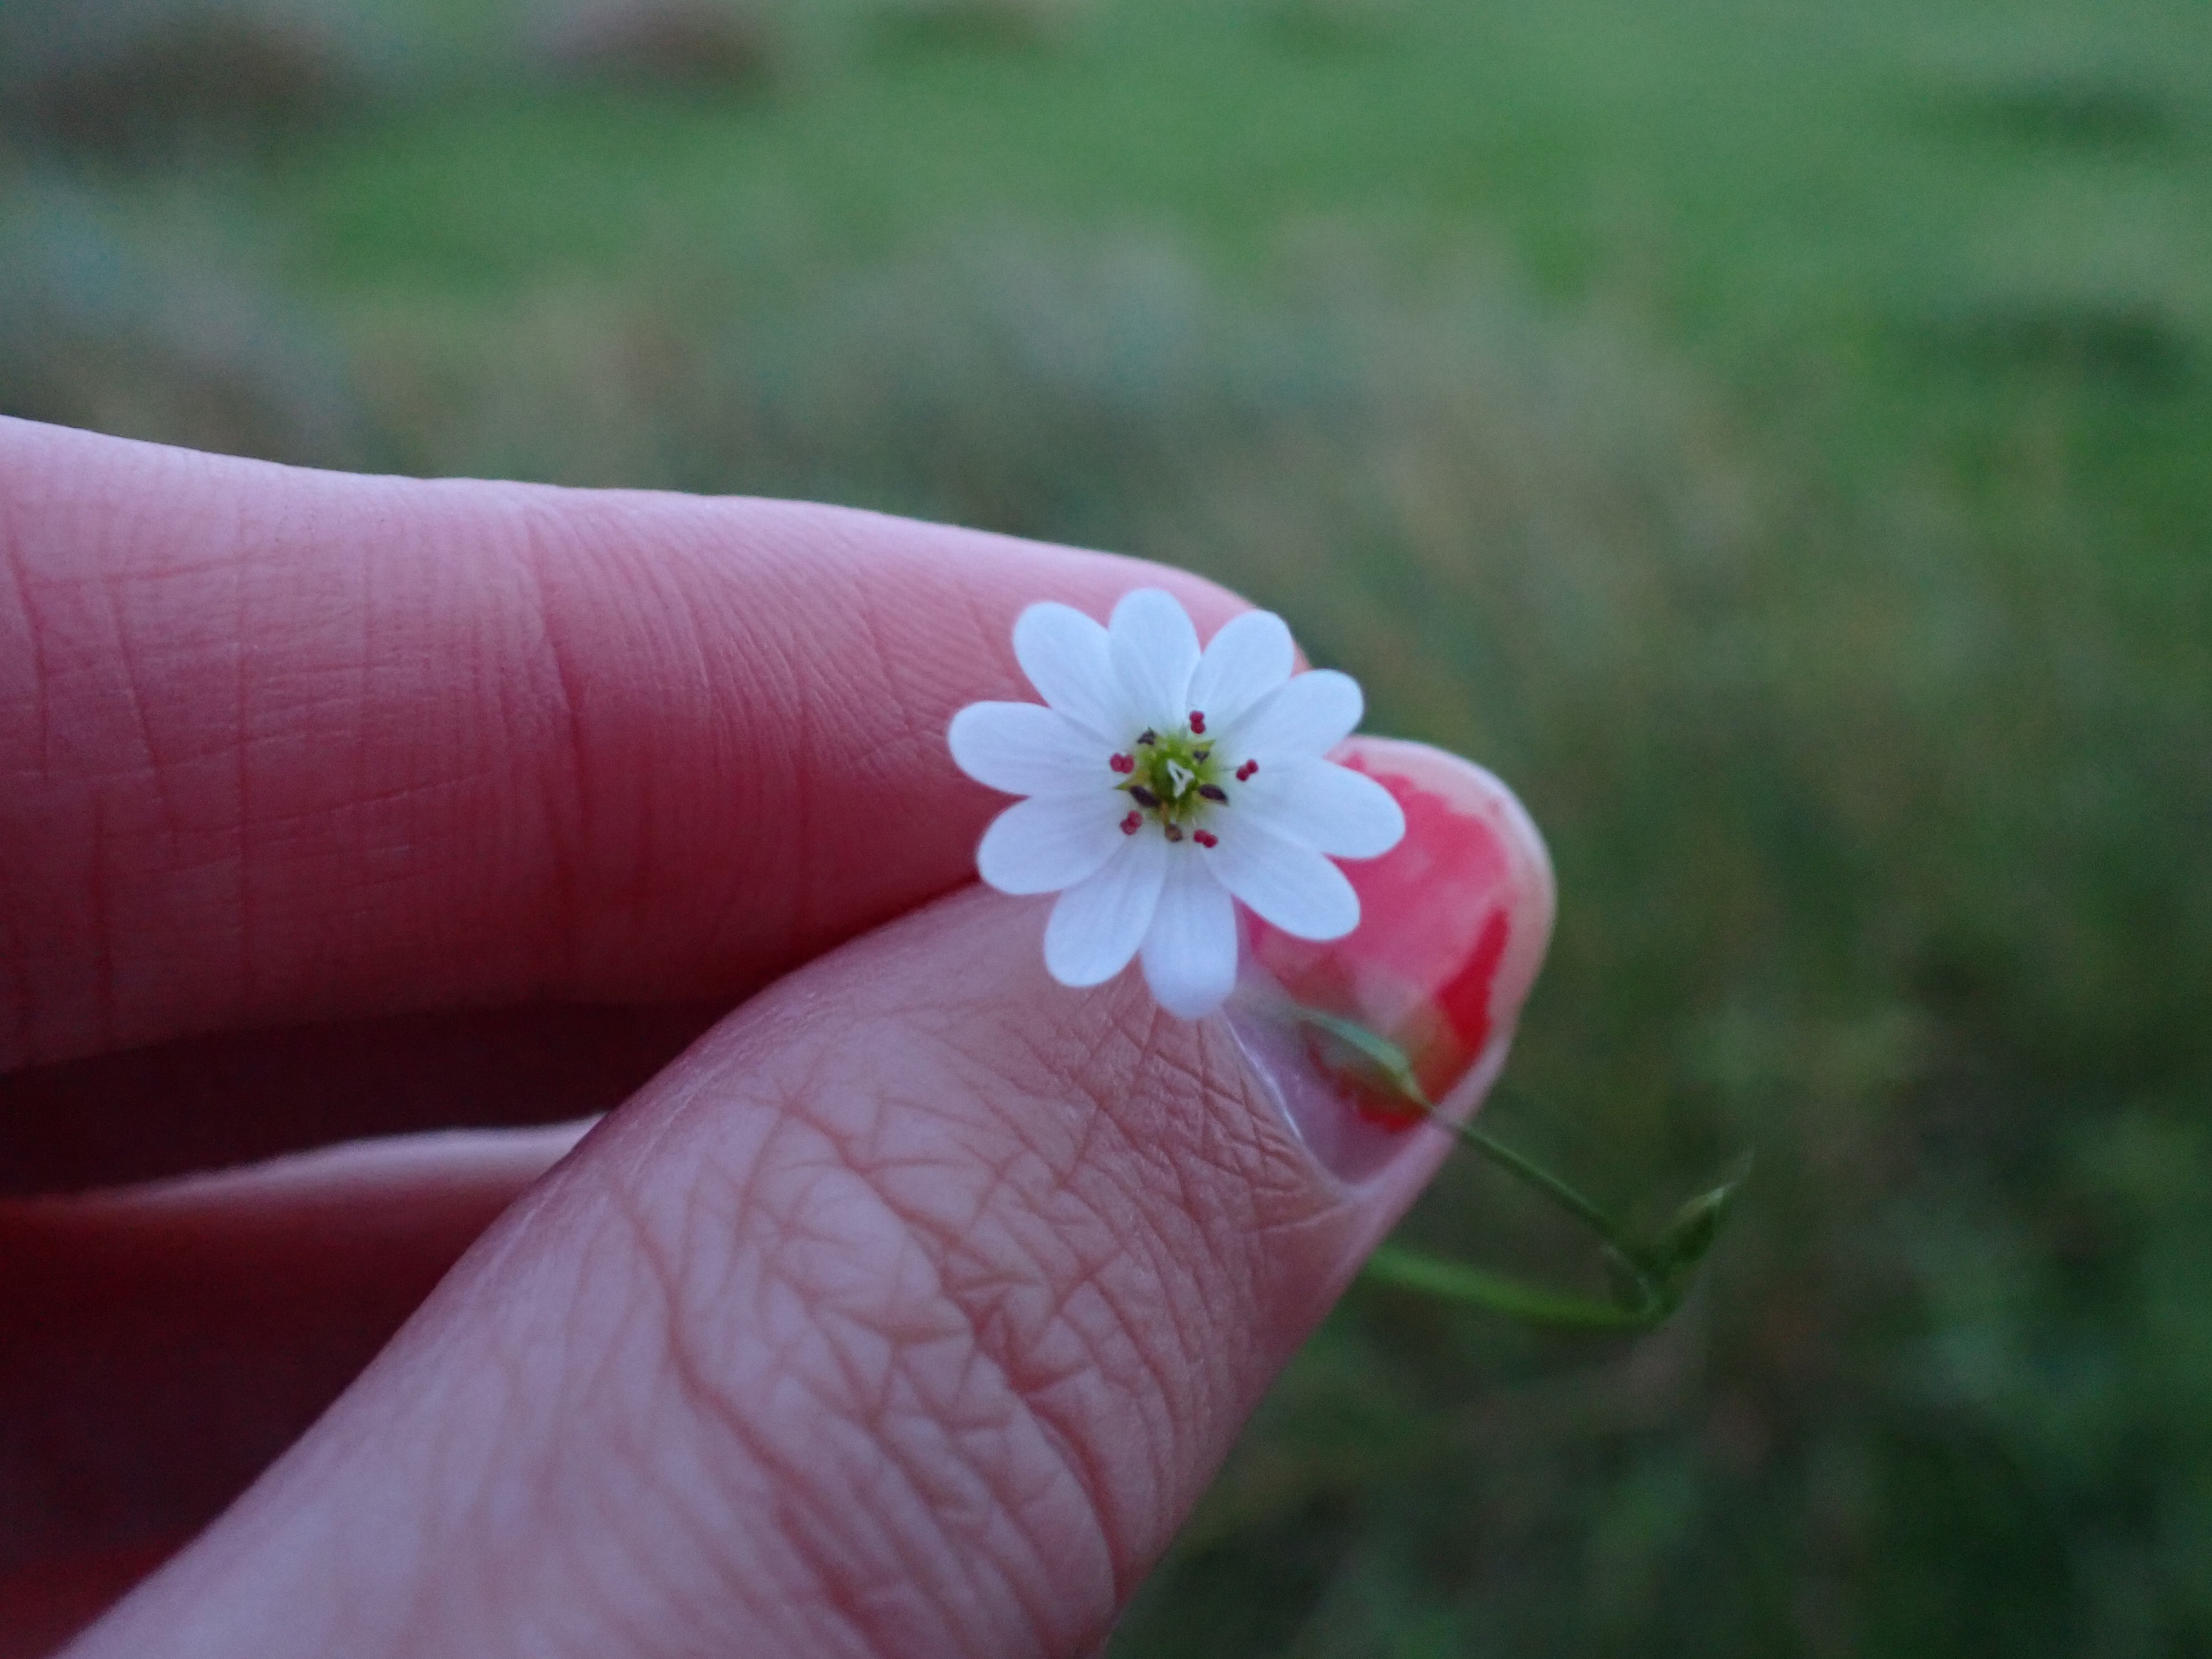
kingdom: Plantae
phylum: Tracheophyta
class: Magnoliopsida
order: Caryophyllales
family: Caryophyllaceae
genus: Stellaria
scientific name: Stellaria palustris
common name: Kær-fladstjerne
